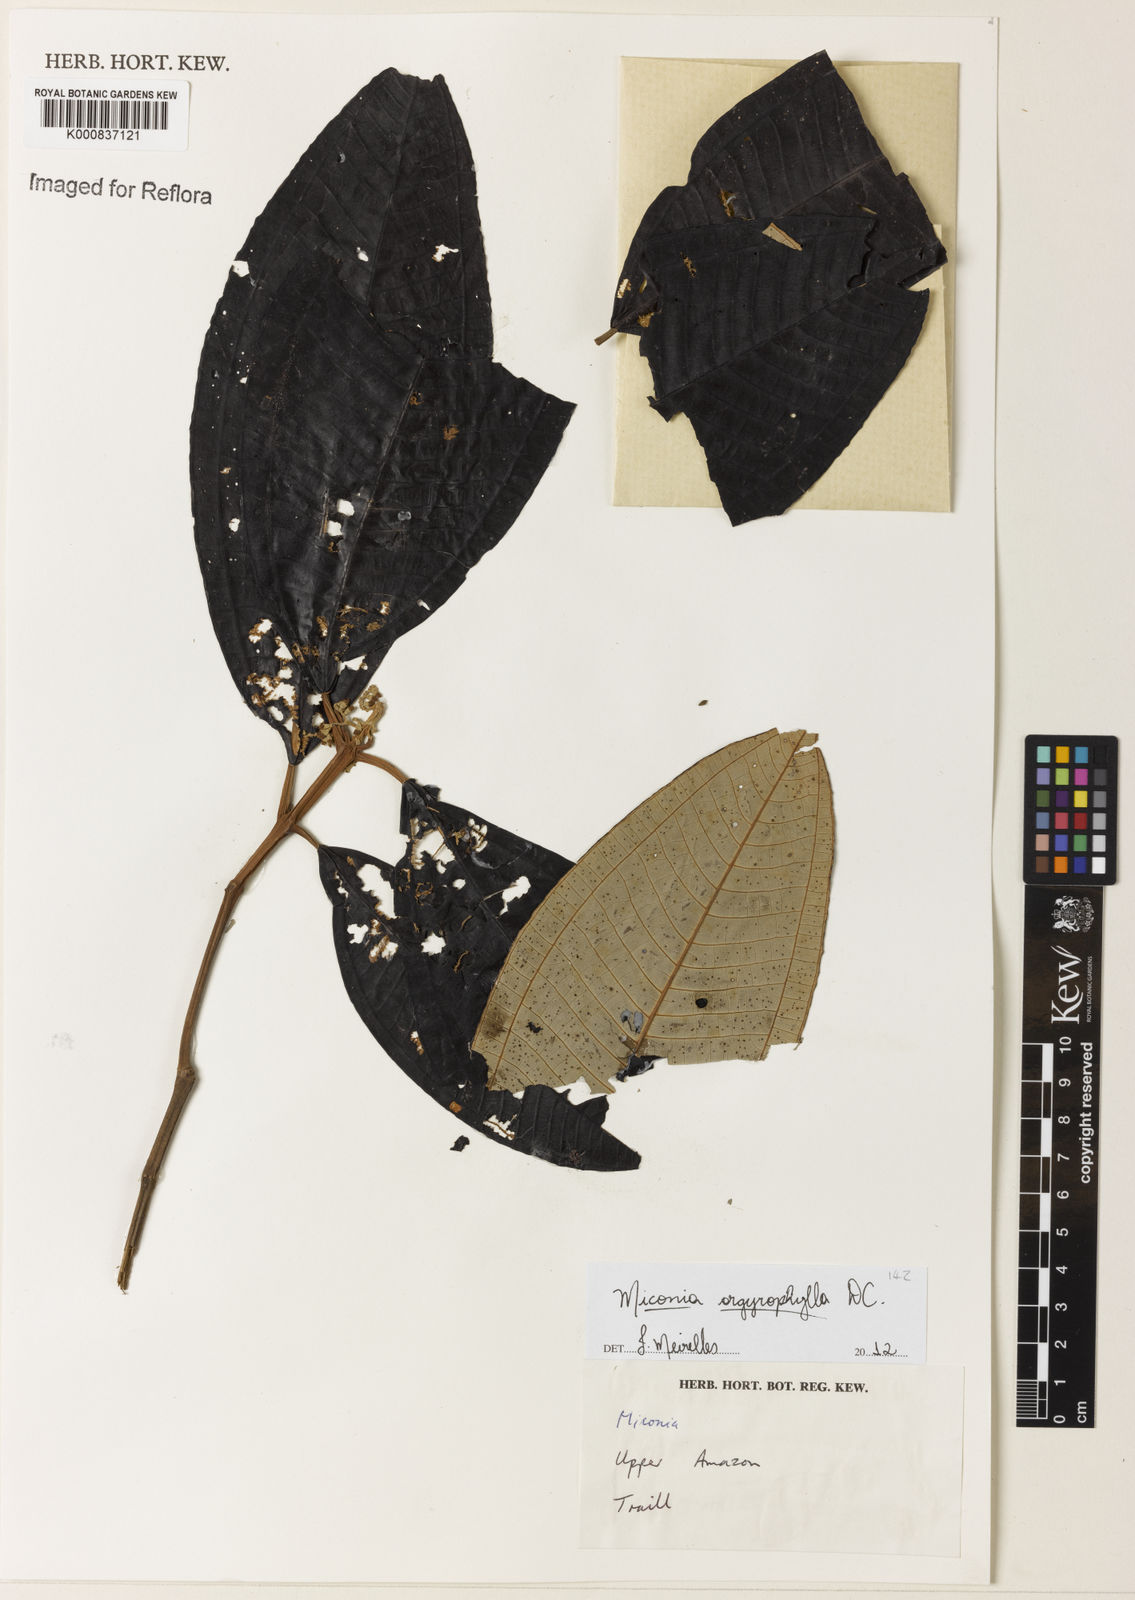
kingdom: Plantae
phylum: Tracheophyta
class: Magnoliopsida
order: Myrtales
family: Melastomataceae
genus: Miconia
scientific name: Miconia argyrophylla
